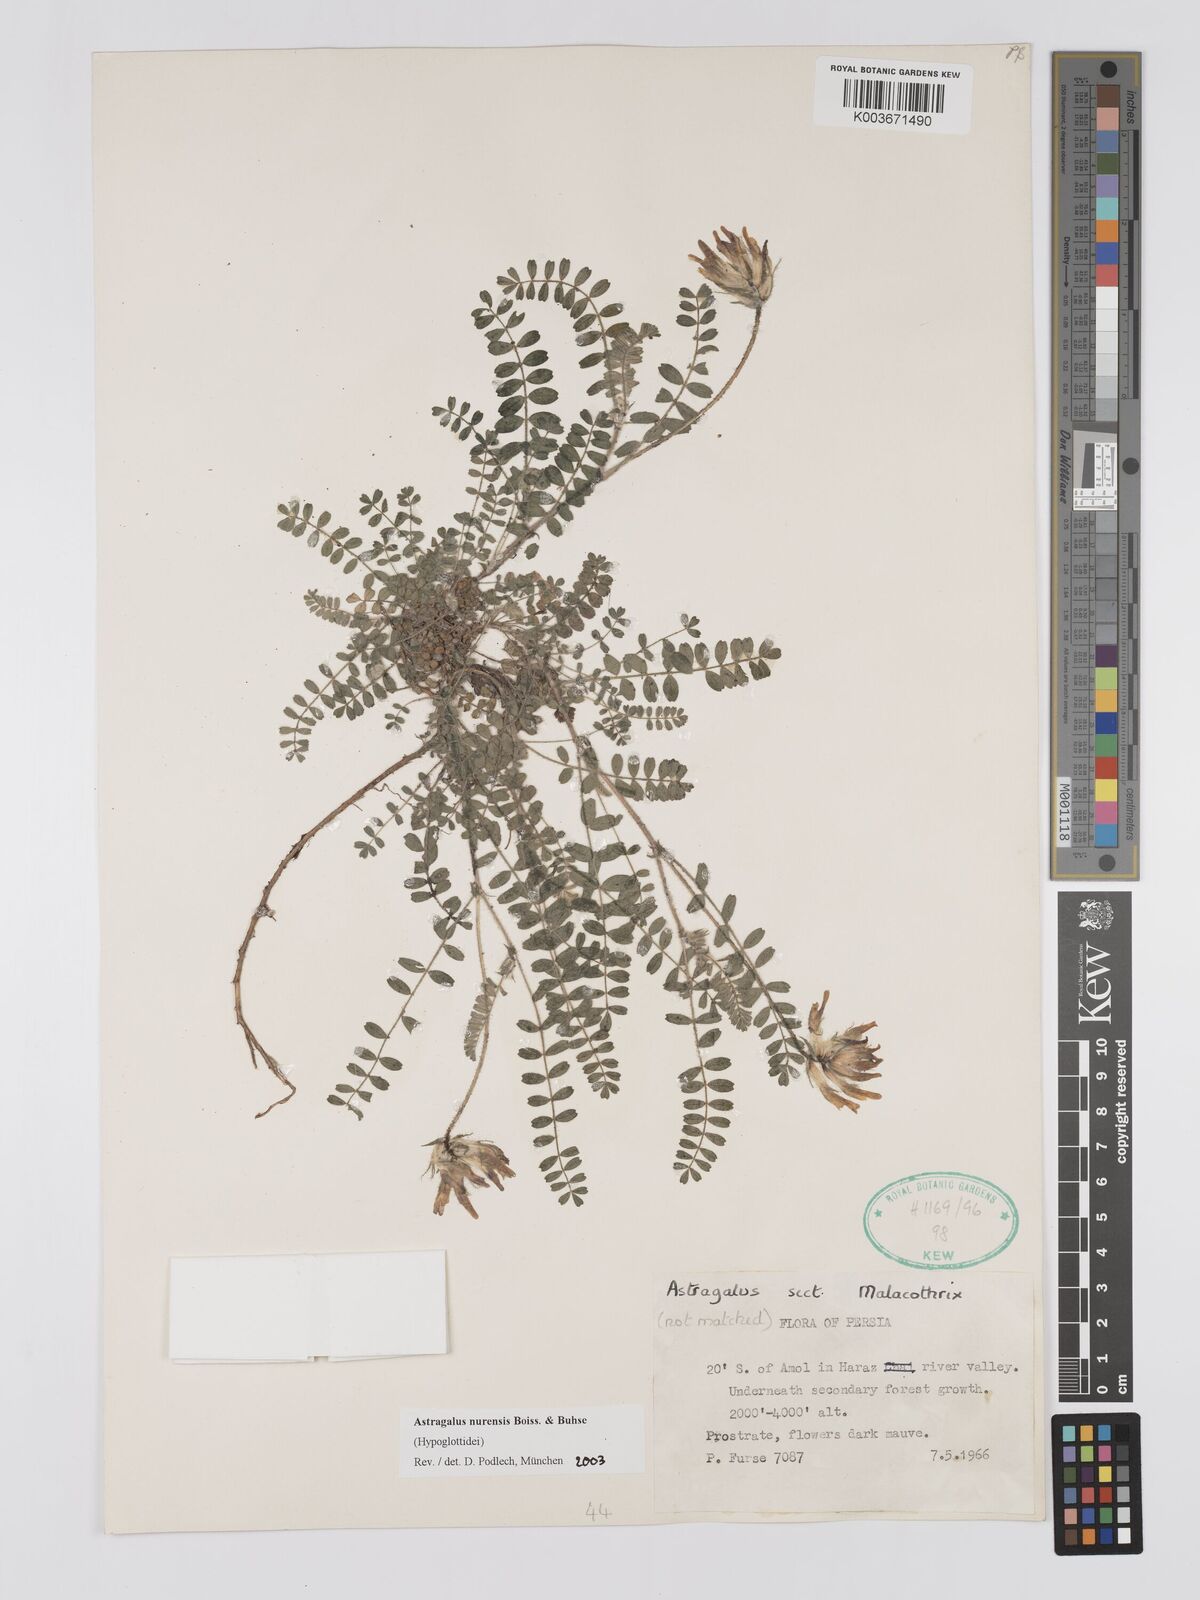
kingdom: Plantae
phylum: Tracheophyta
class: Magnoliopsida
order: Fabales
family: Fabaceae
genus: Astragalus
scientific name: Astragalus nurensis
